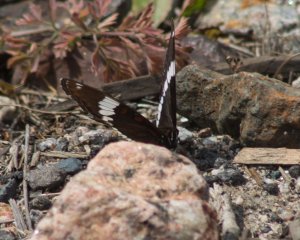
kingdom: Animalia
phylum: Arthropoda
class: Insecta
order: Lepidoptera
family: Nymphalidae
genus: Limenitis
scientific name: Limenitis arthemis
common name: Red-spotted Admiral
